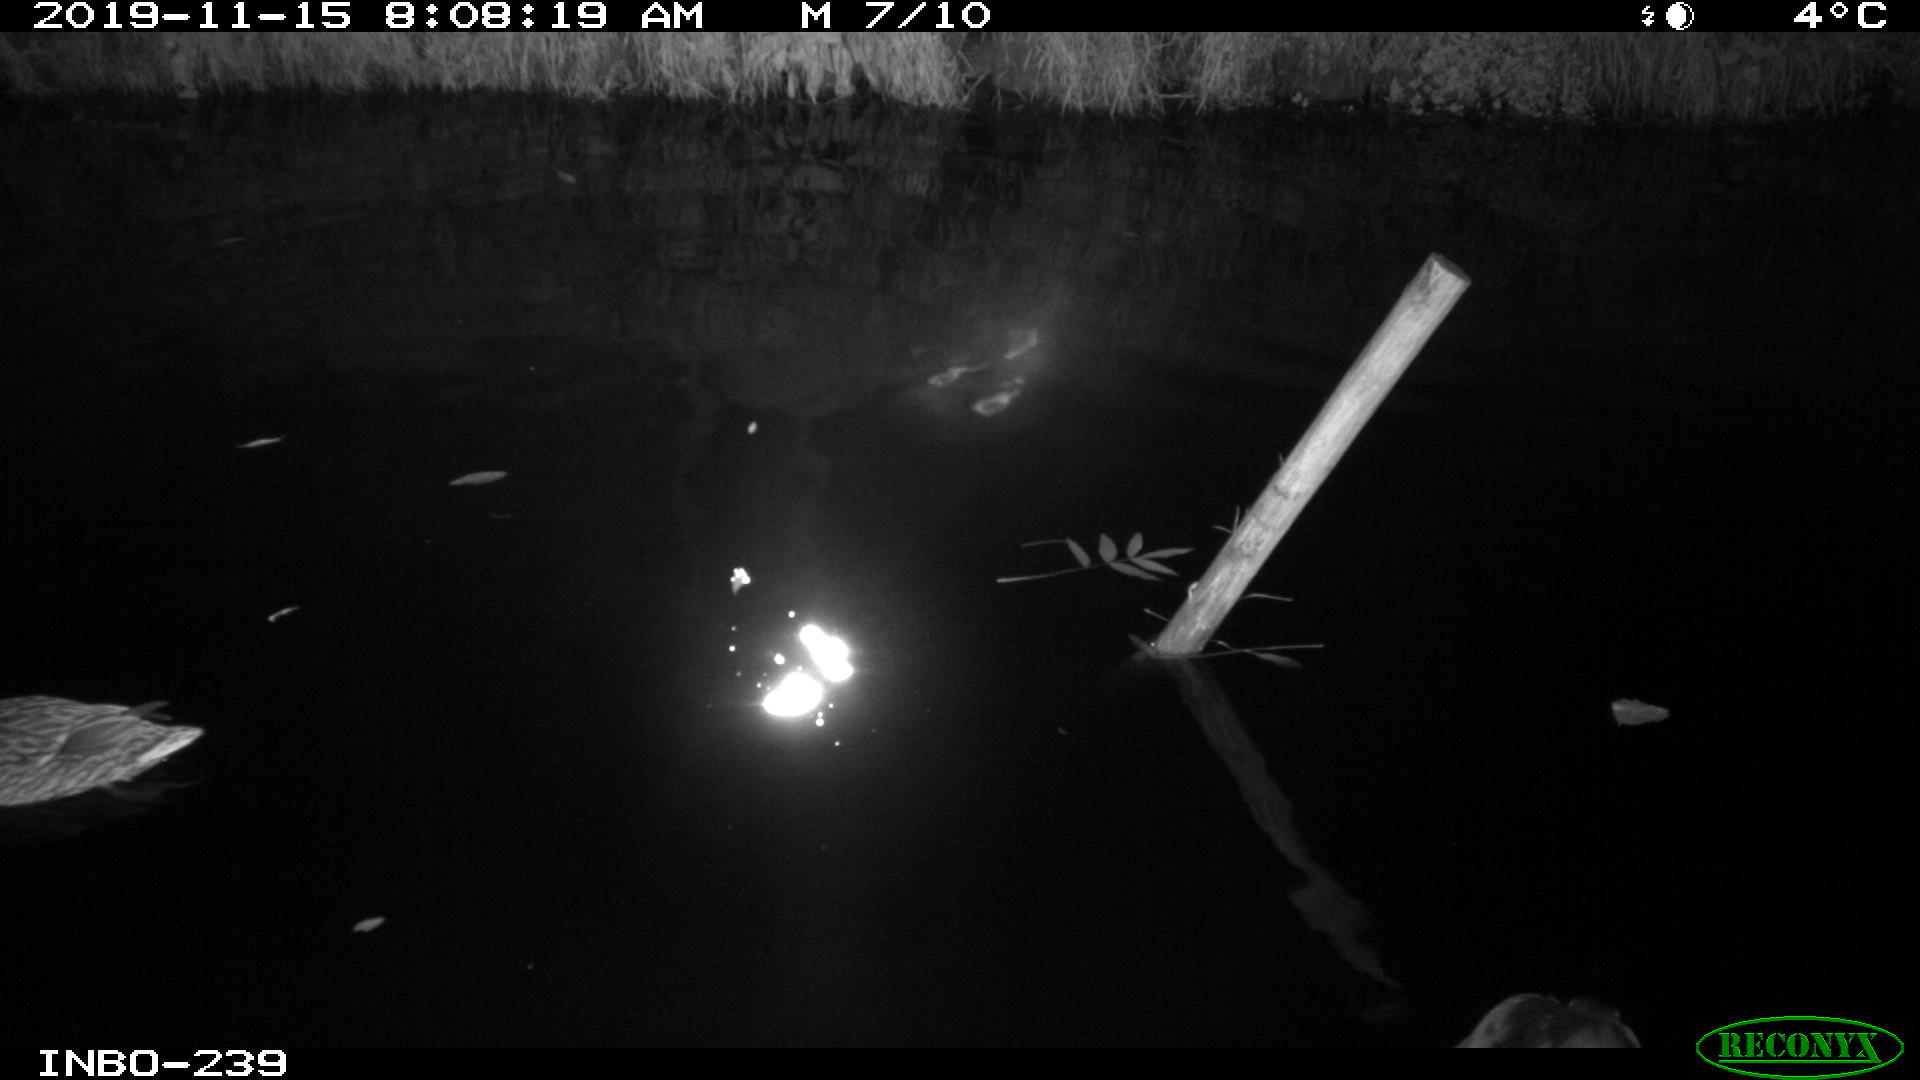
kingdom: Animalia
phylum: Chordata
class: Aves
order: Anseriformes
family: Anatidae
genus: Anas
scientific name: Anas platyrhynchos
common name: Mallard
